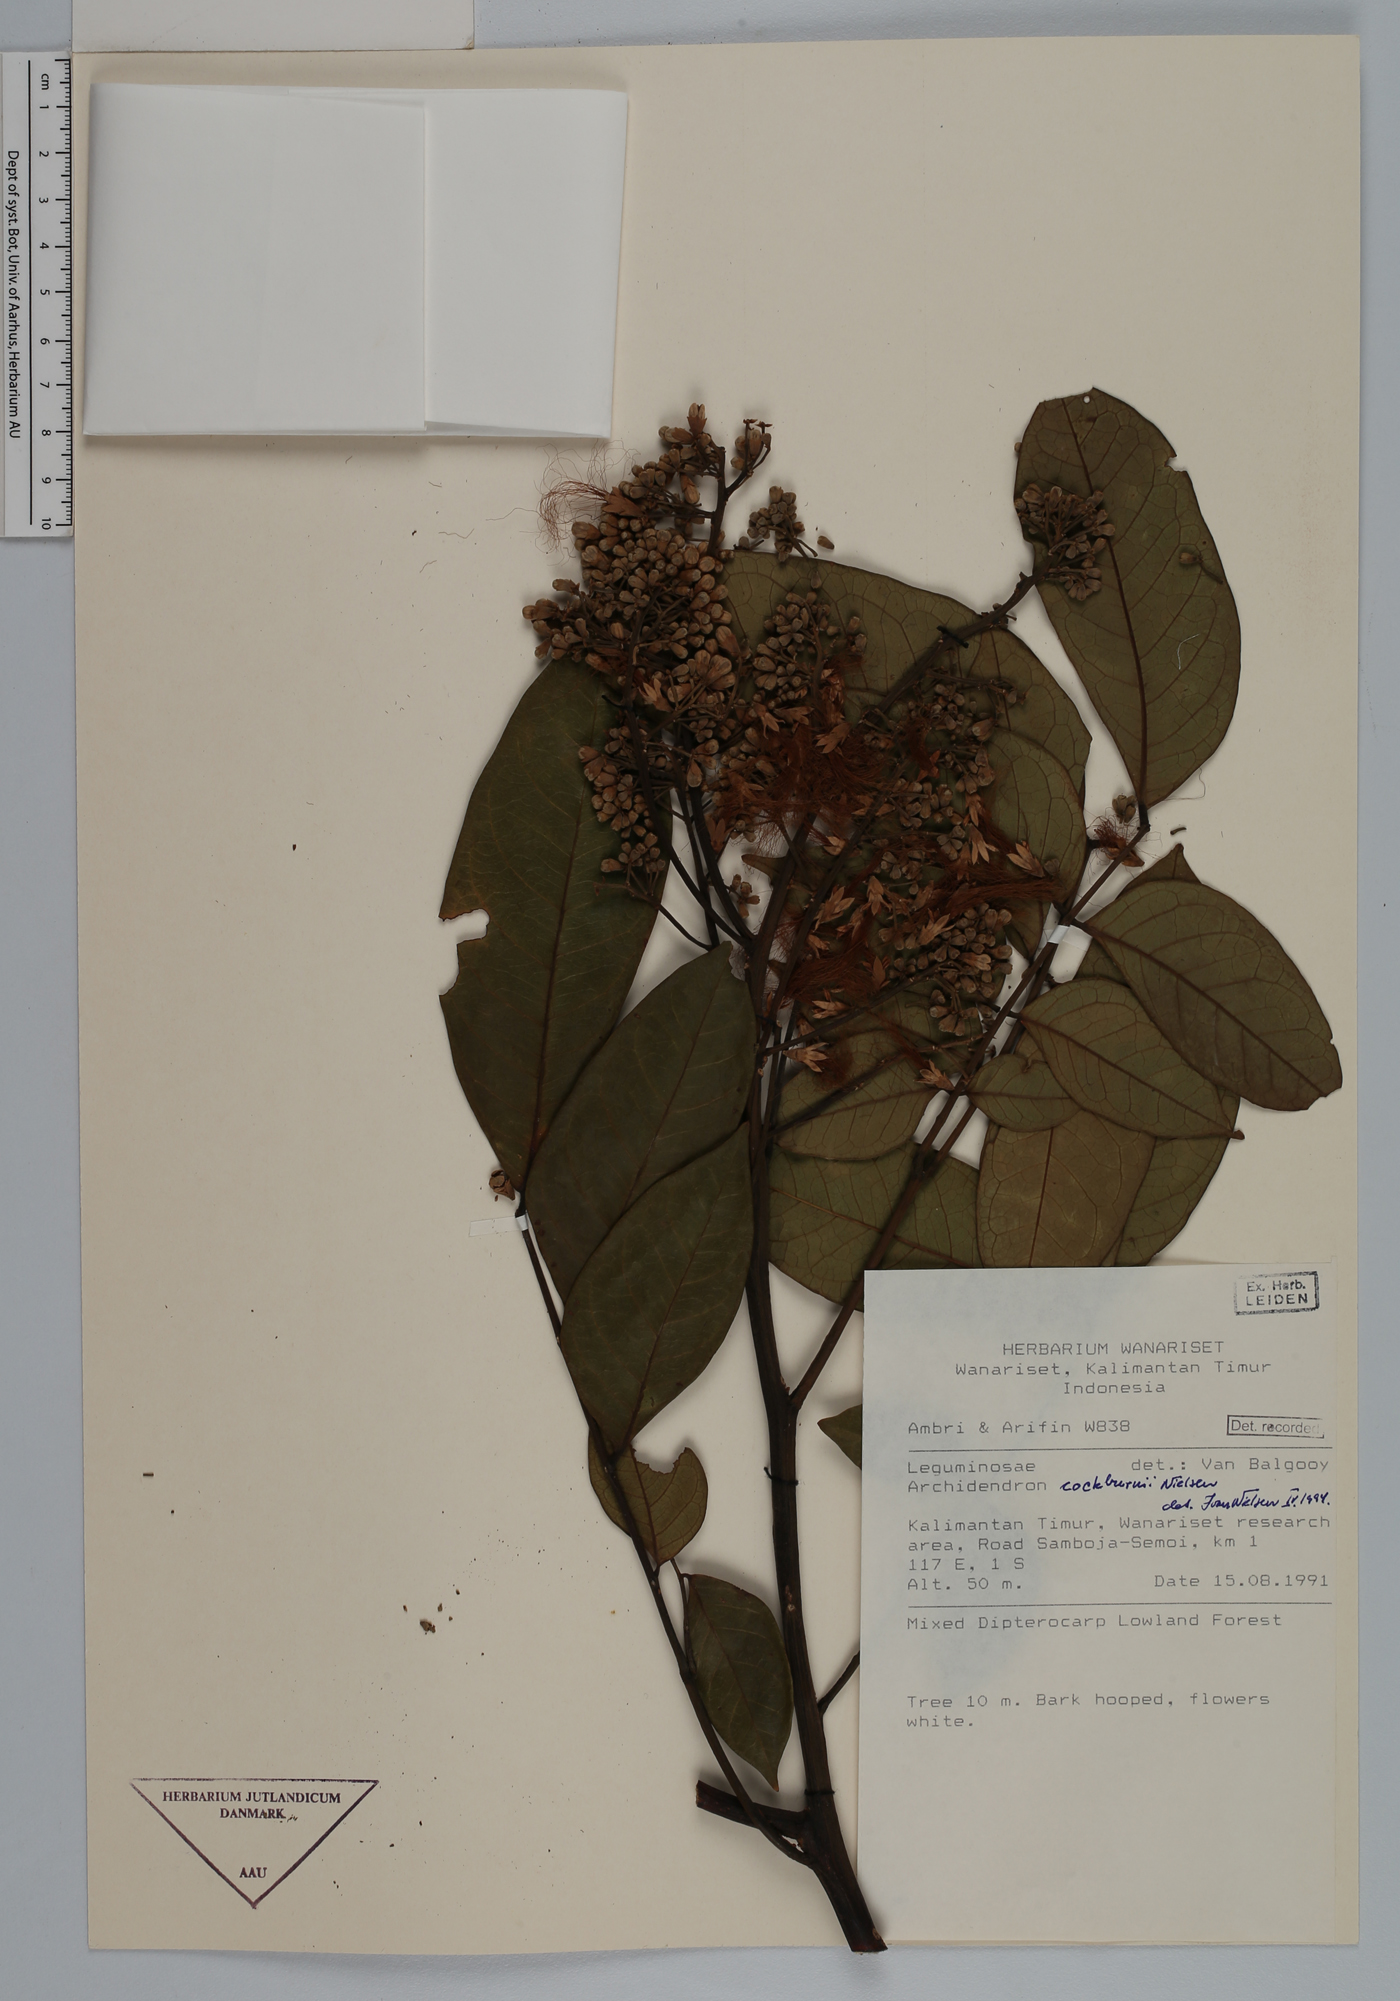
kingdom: Plantae
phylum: Tracheophyta
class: Magnoliopsida
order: Fabales
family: Fabaceae
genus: Archidendron
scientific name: Archidendron cockburnii
